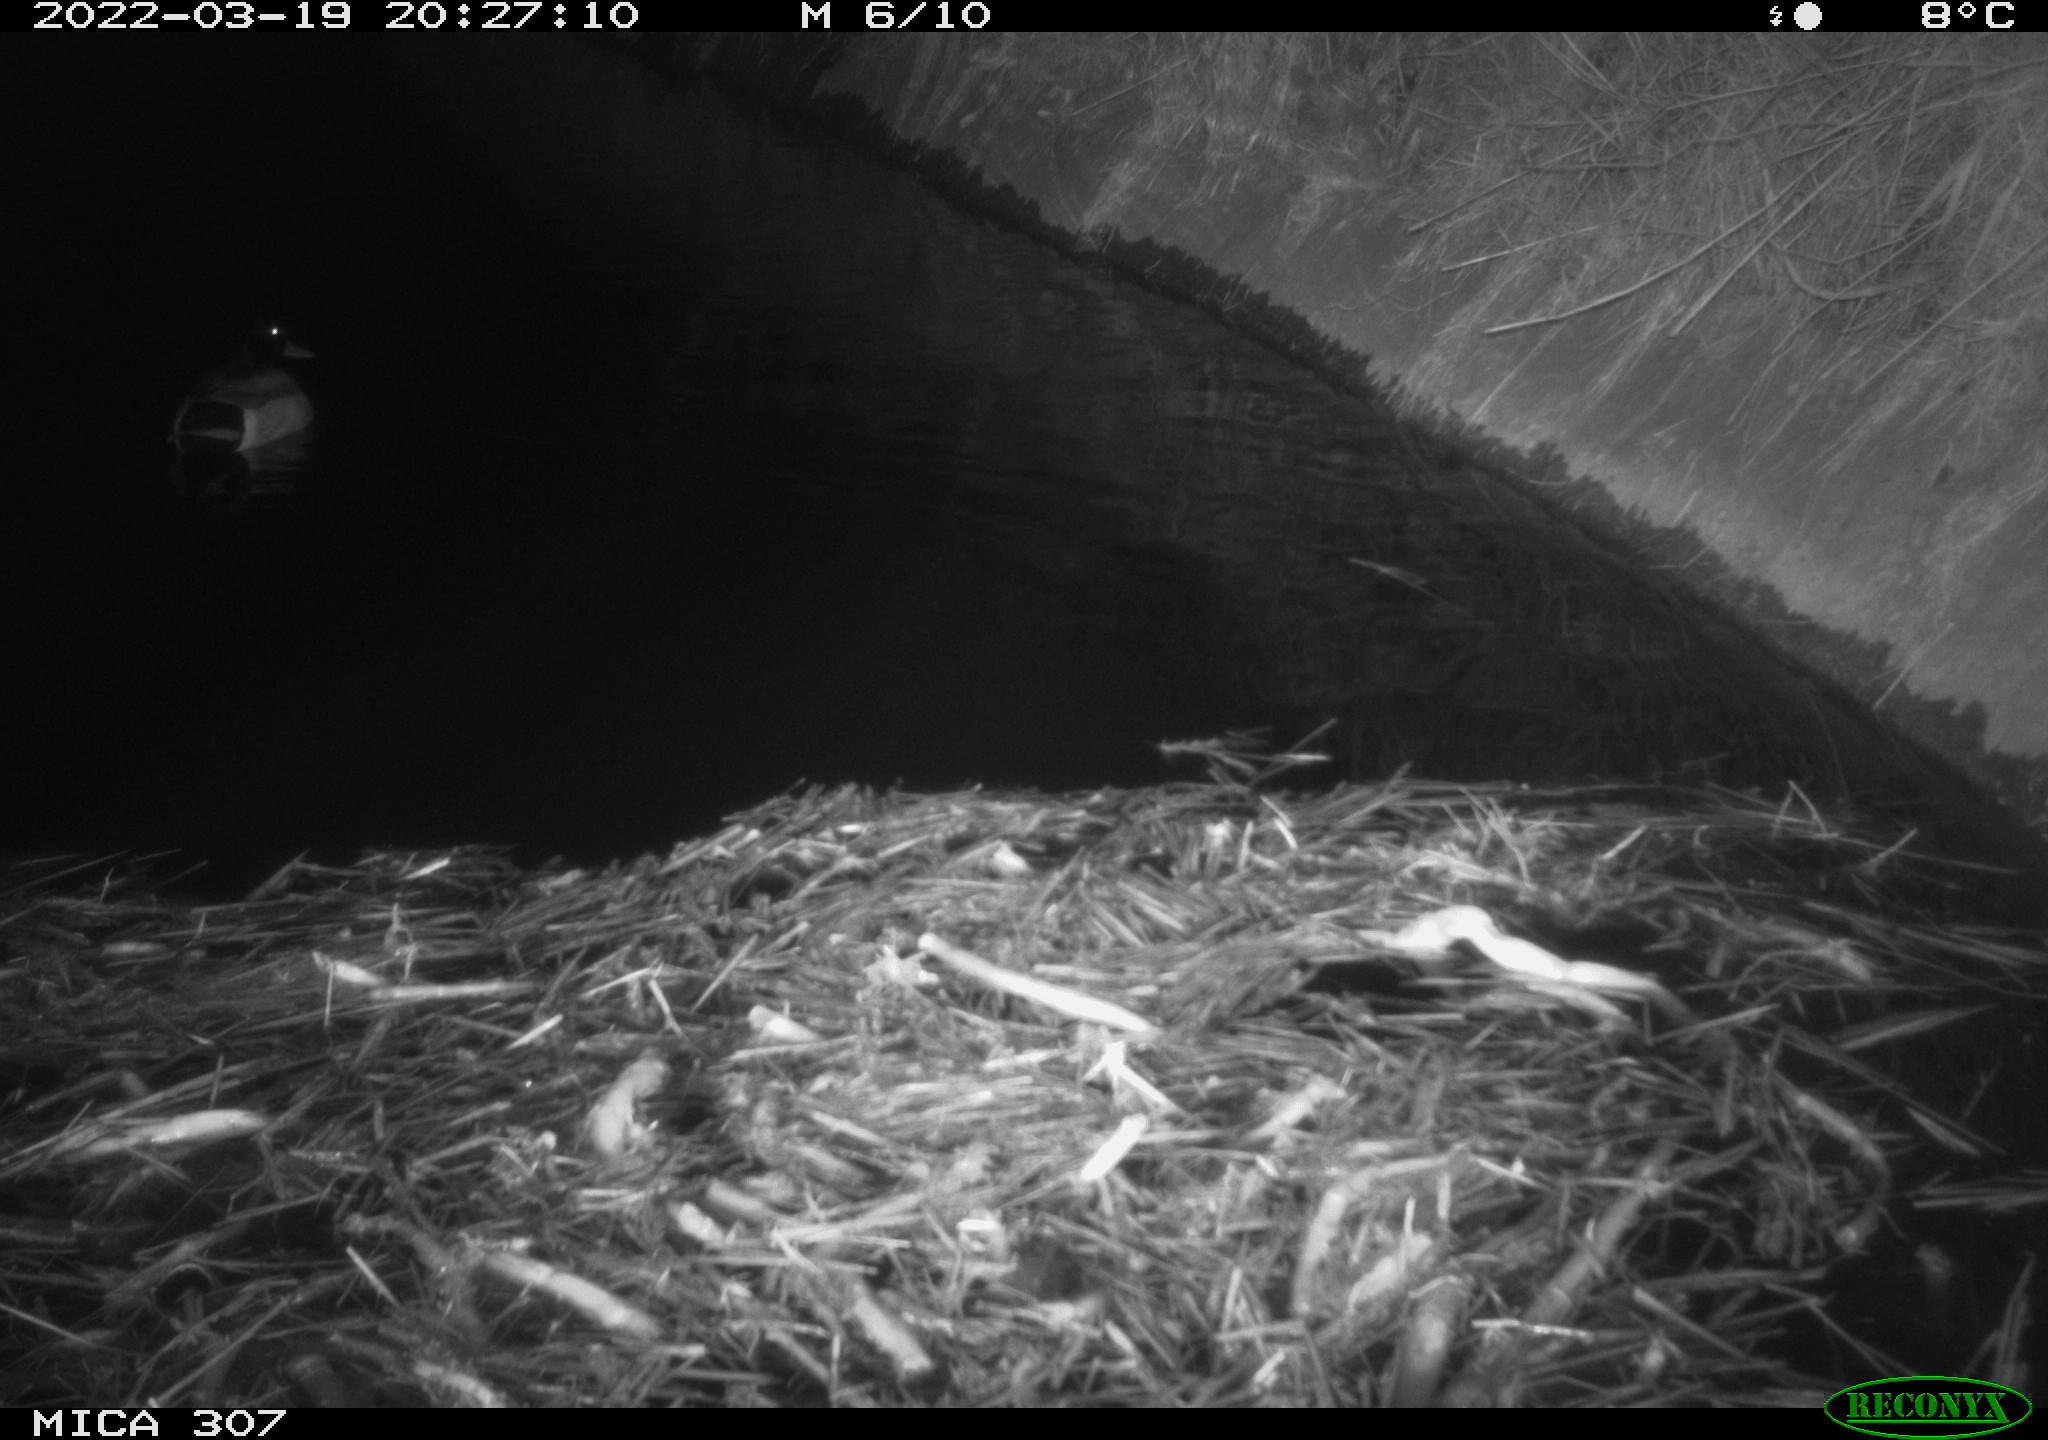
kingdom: Animalia
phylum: Chordata
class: Aves
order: Anseriformes
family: Anatidae
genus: Anas
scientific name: Anas platyrhynchos
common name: Mallard
